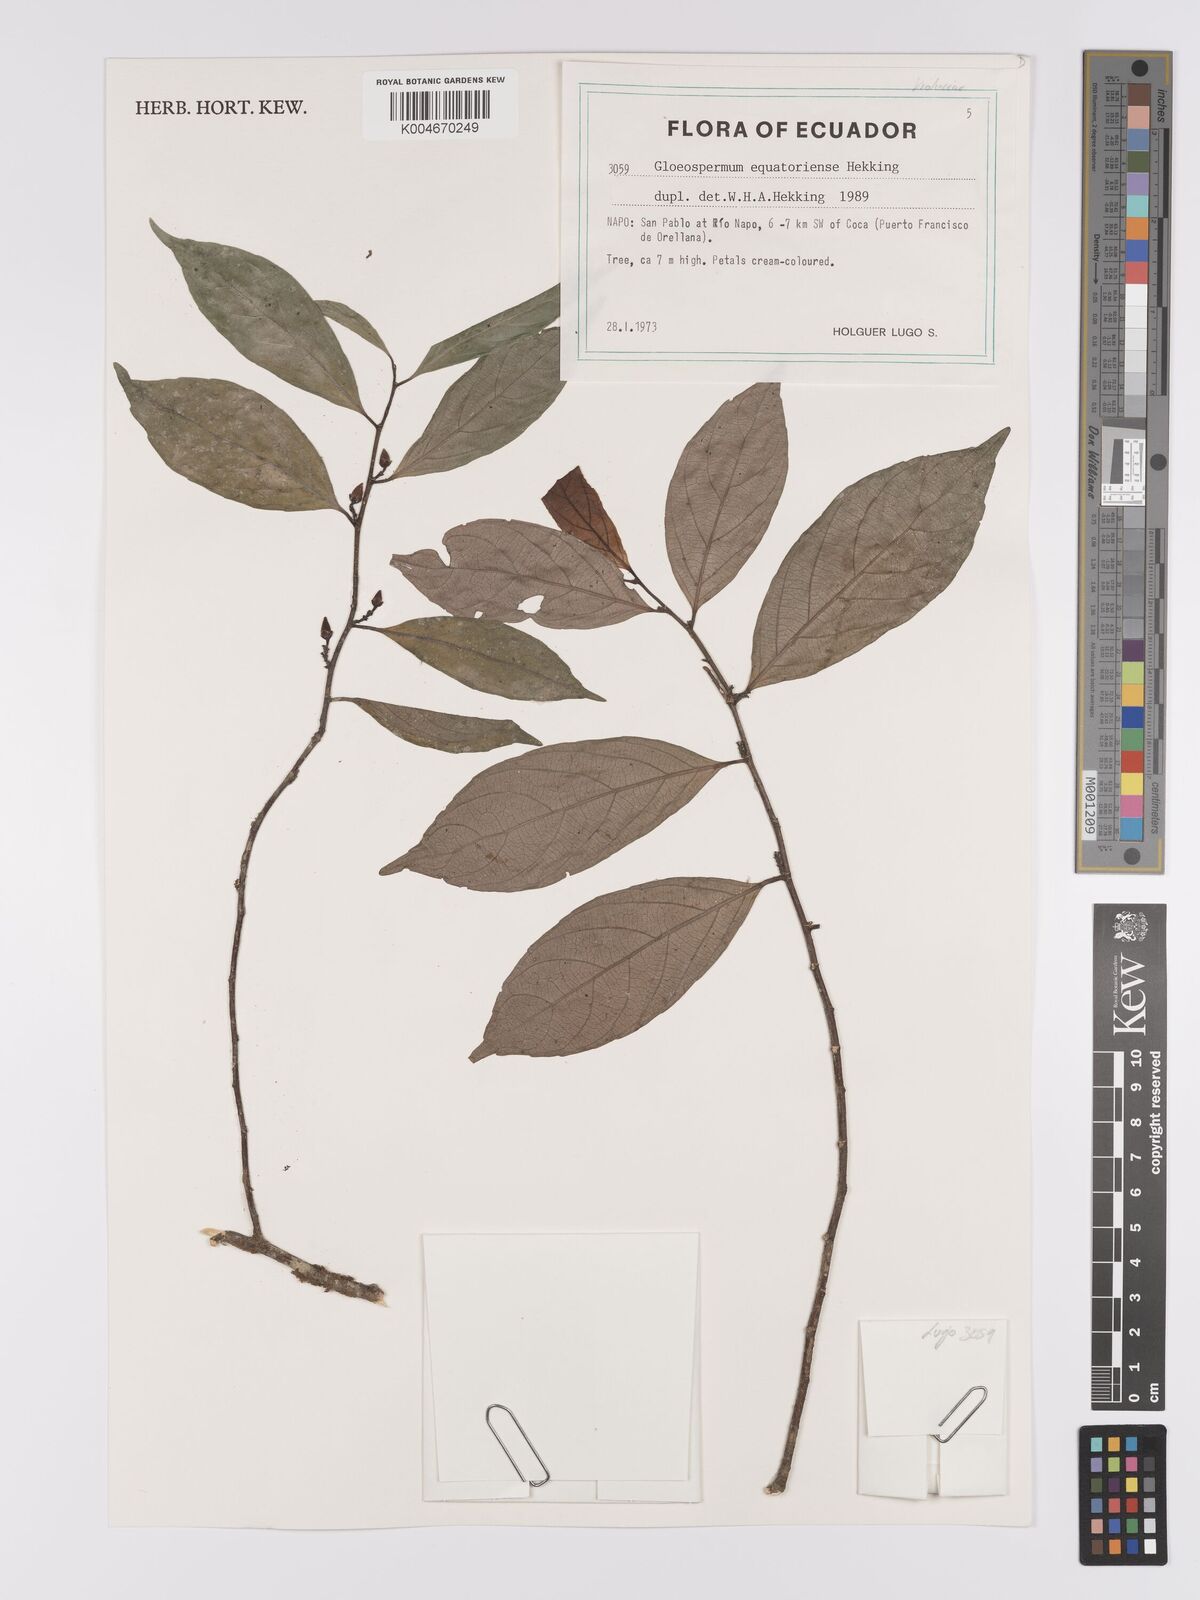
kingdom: Plantae
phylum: Tracheophyta
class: Magnoliopsida
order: Malpighiales
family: Violaceae
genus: Gloeospermum
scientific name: Gloeospermum equatoriense
